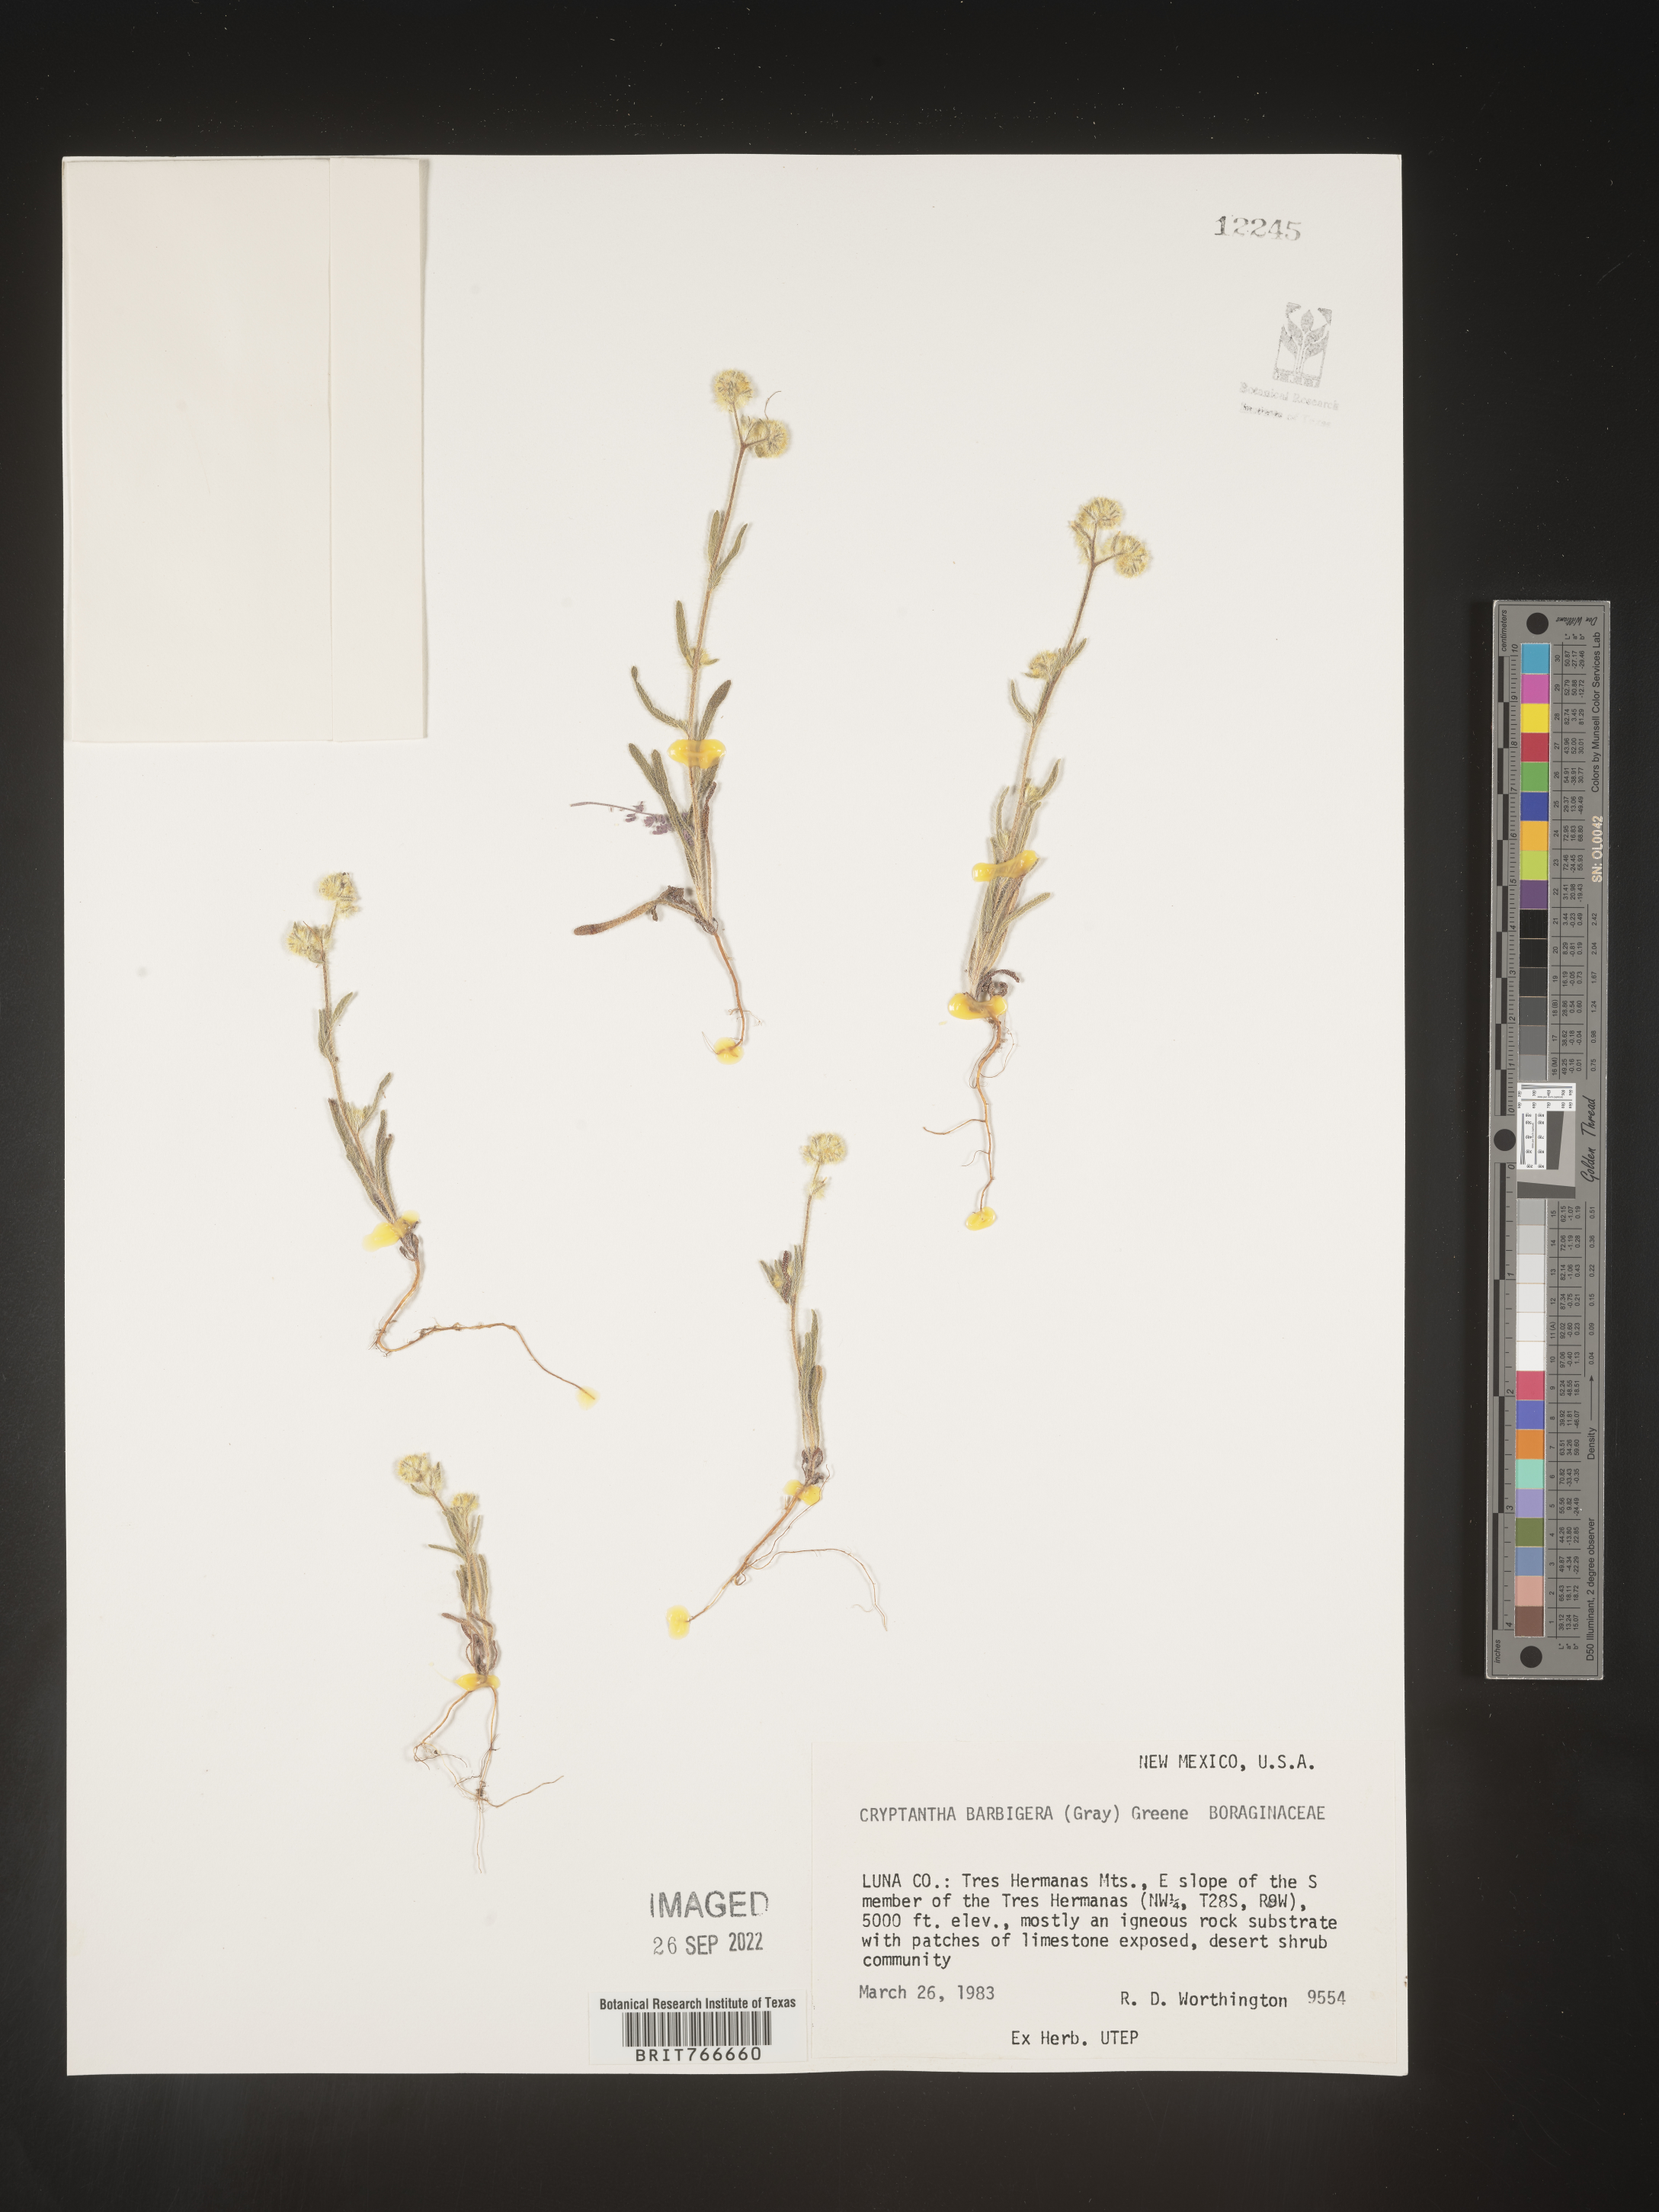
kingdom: Plantae
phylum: Tracheophyta
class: Magnoliopsida
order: Boraginales
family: Boraginaceae
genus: Cryptantha
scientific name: Cryptantha
